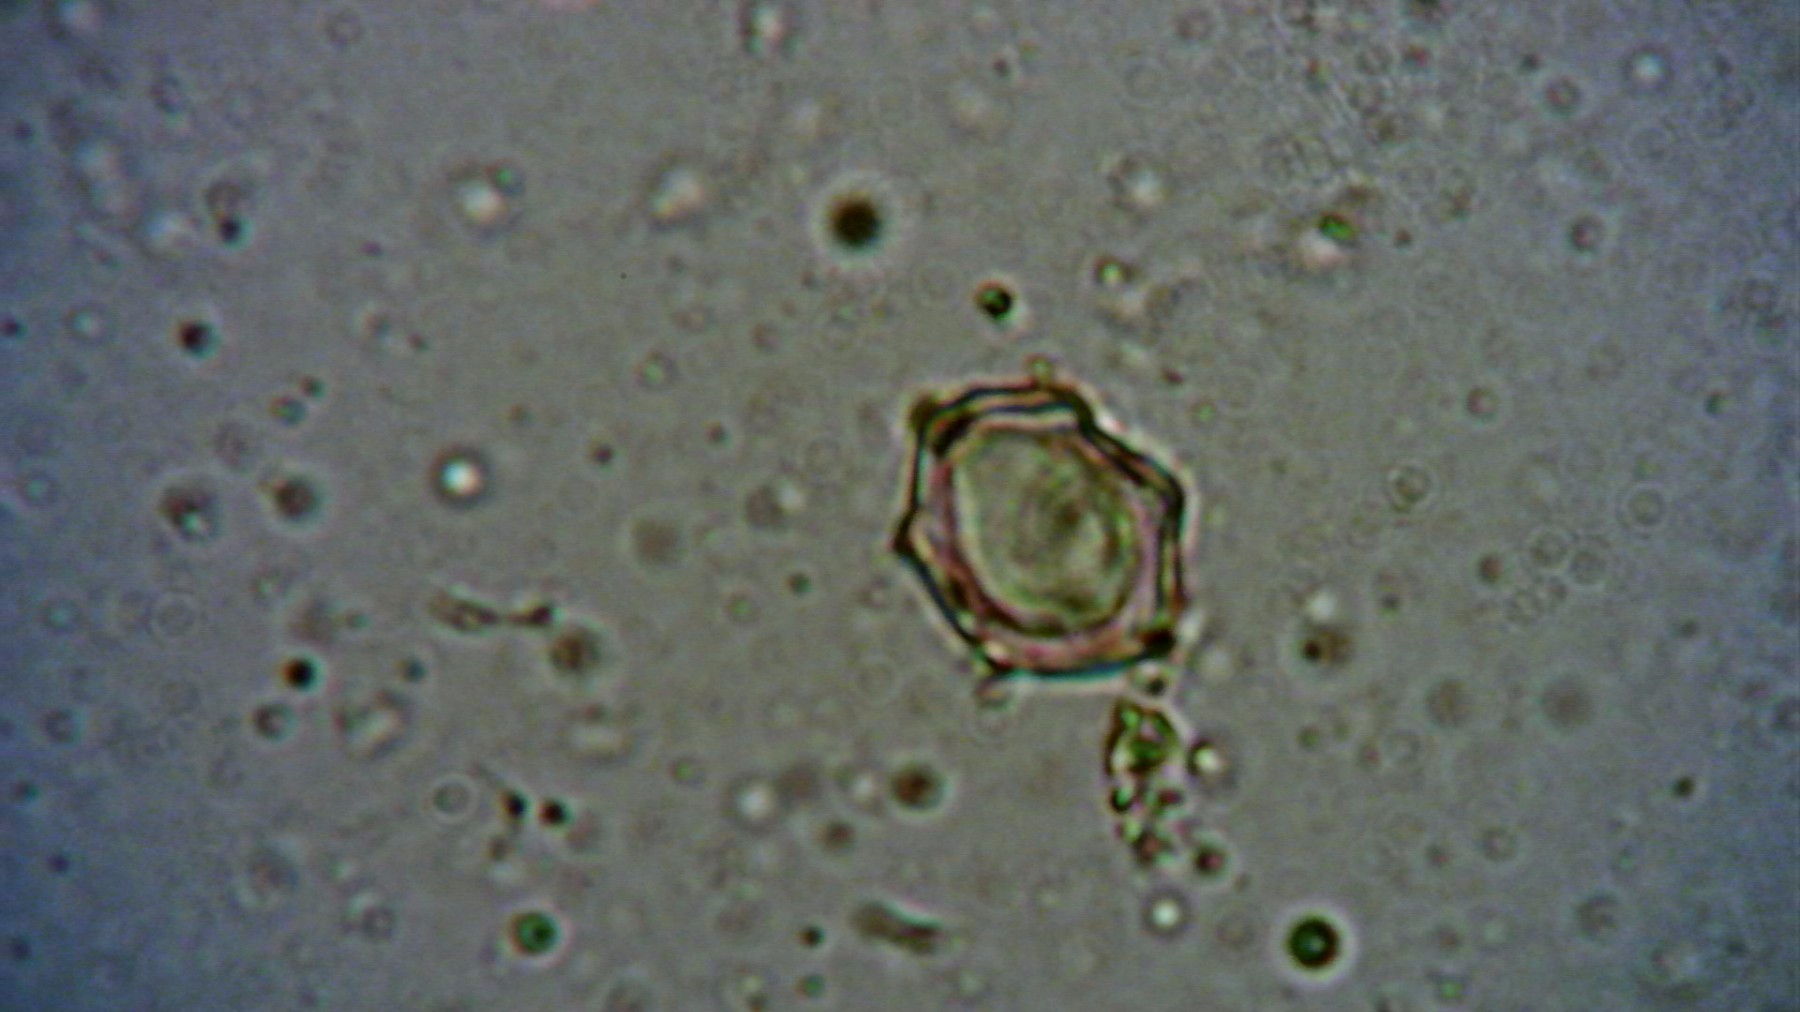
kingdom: Fungi
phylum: Basidiomycota
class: Agaricomycetes
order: Agaricales
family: Entolomataceae
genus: Entoloma
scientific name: Entoloma sericellum
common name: silkehvid rødblad
